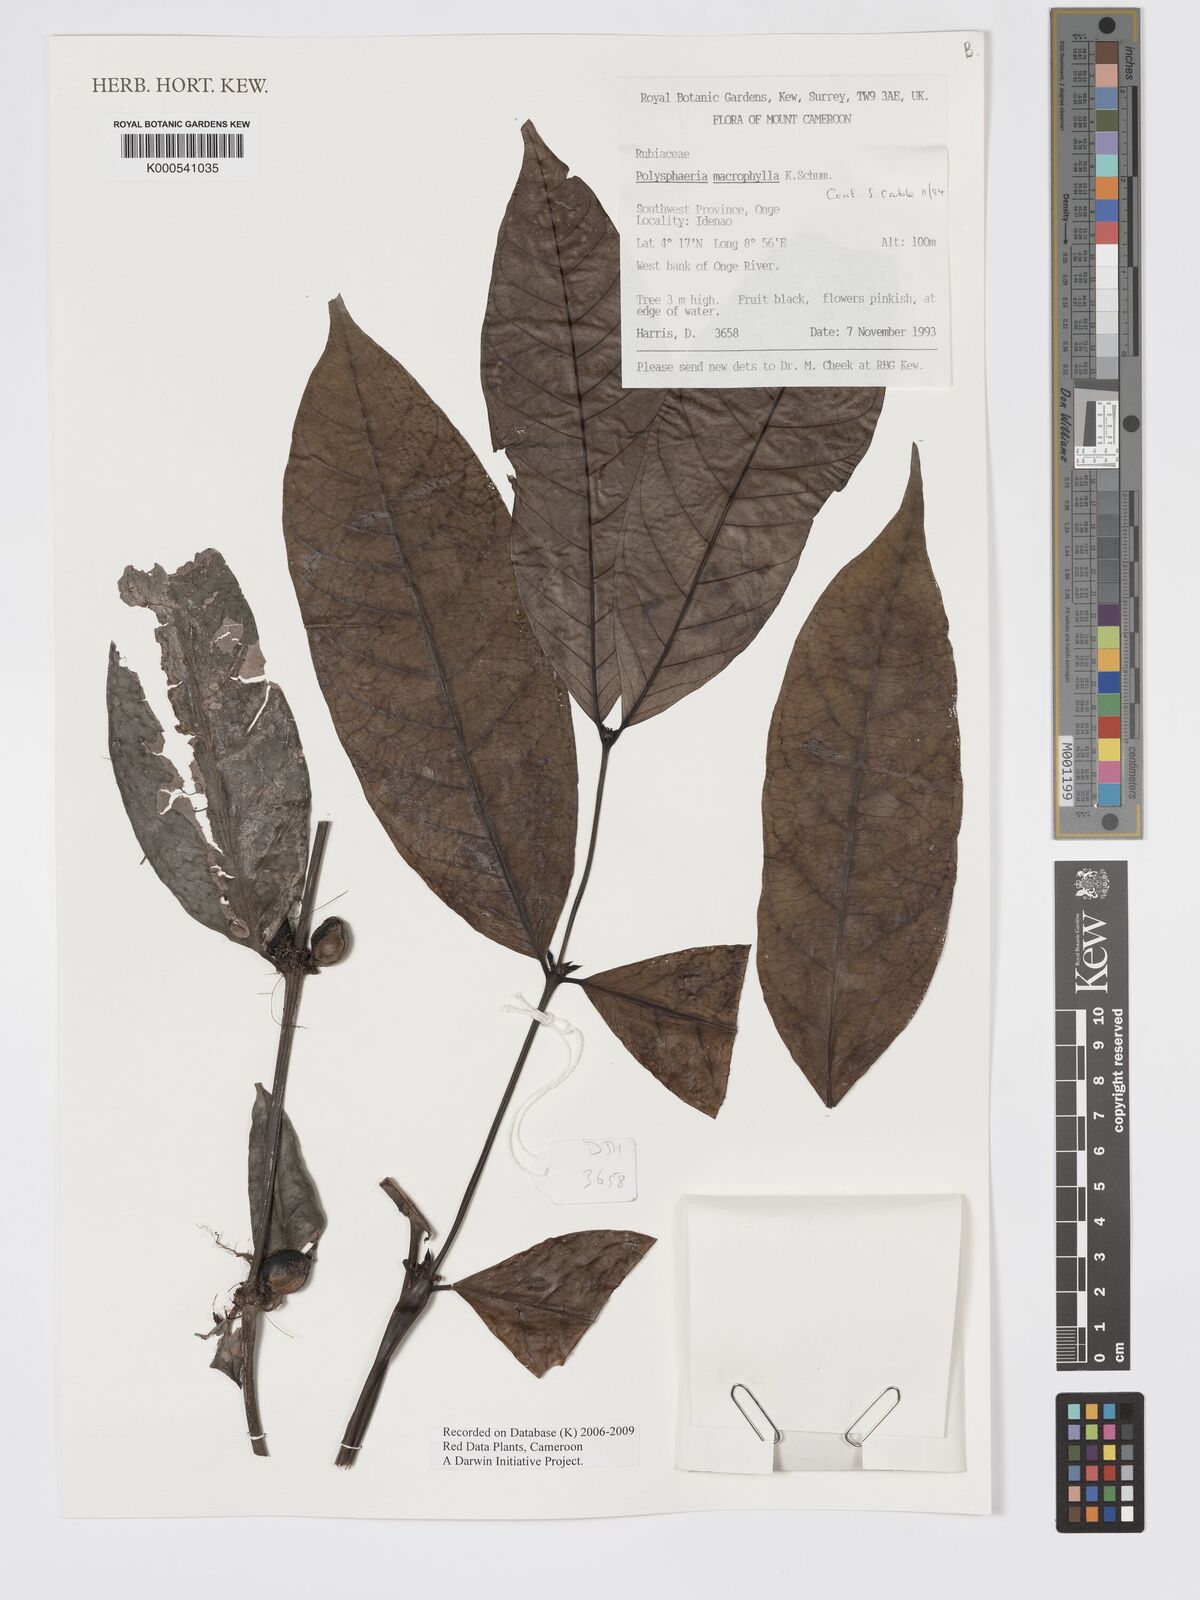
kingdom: Plantae
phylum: Tracheophyta
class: Magnoliopsida
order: Gentianales
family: Rubiaceae
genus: Polysphaeria
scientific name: Polysphaeria macrophylla
